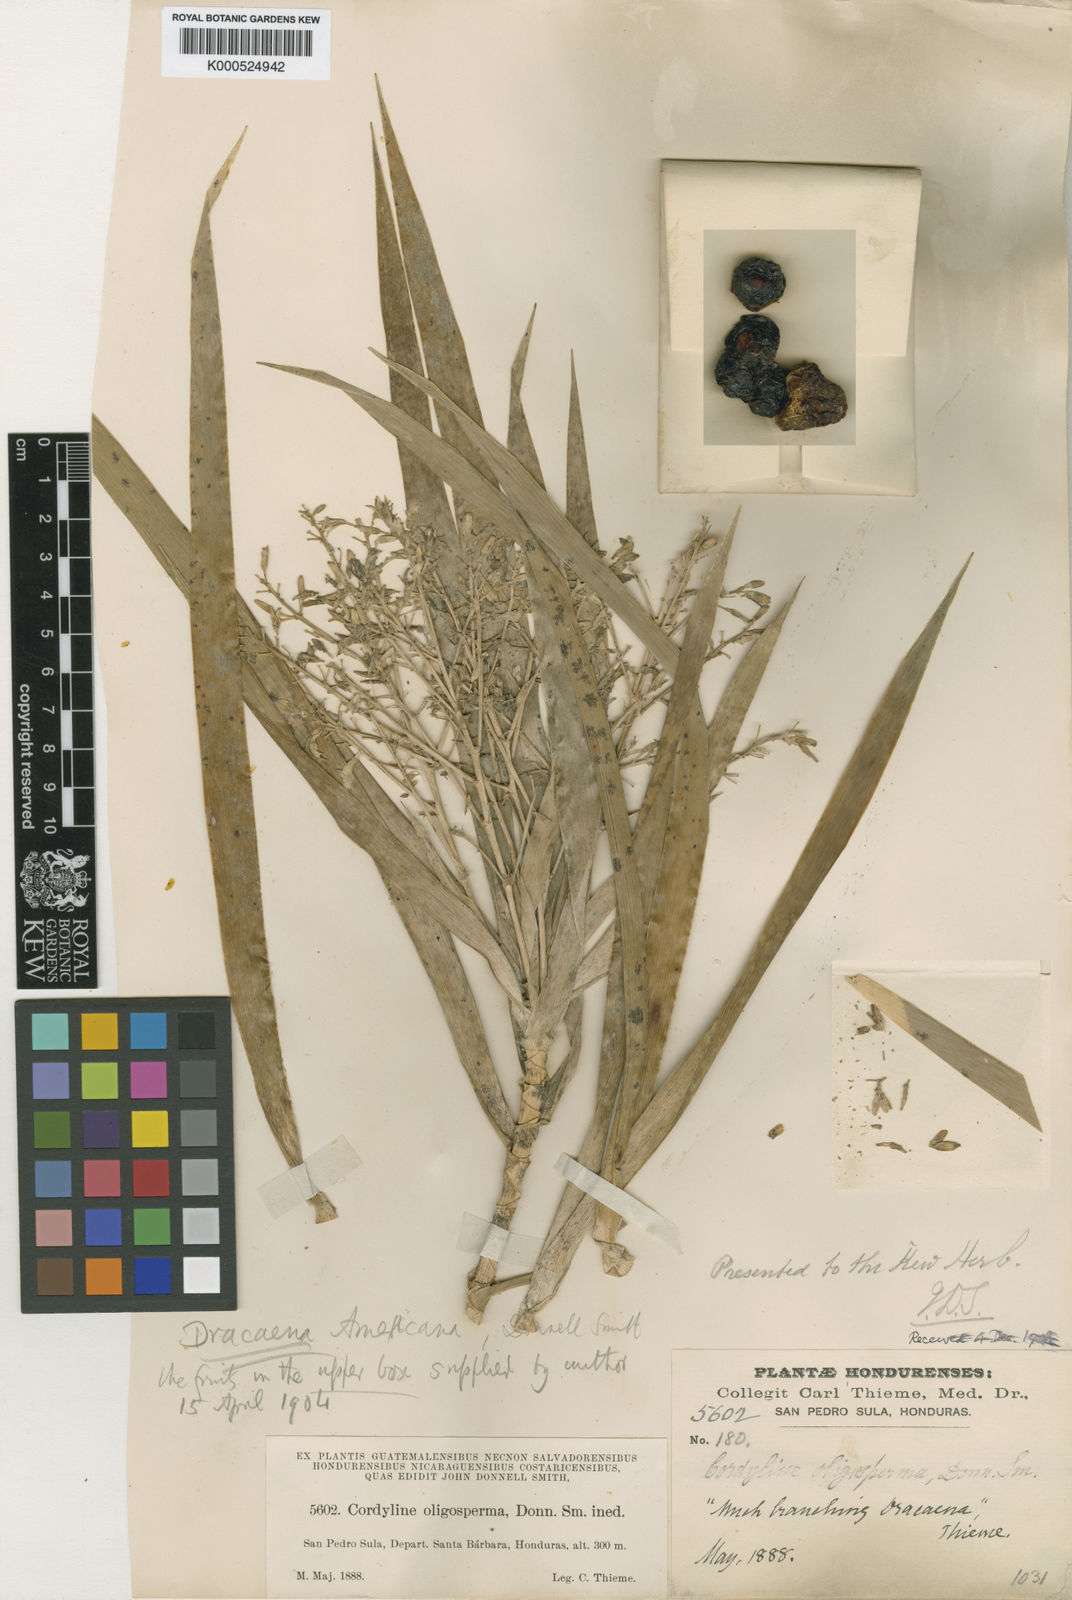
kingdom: Plantae
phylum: Tracheophyta
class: Liliopsida
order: Asparagales
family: Asparagaceae
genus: Dracaena
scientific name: Dracaena
